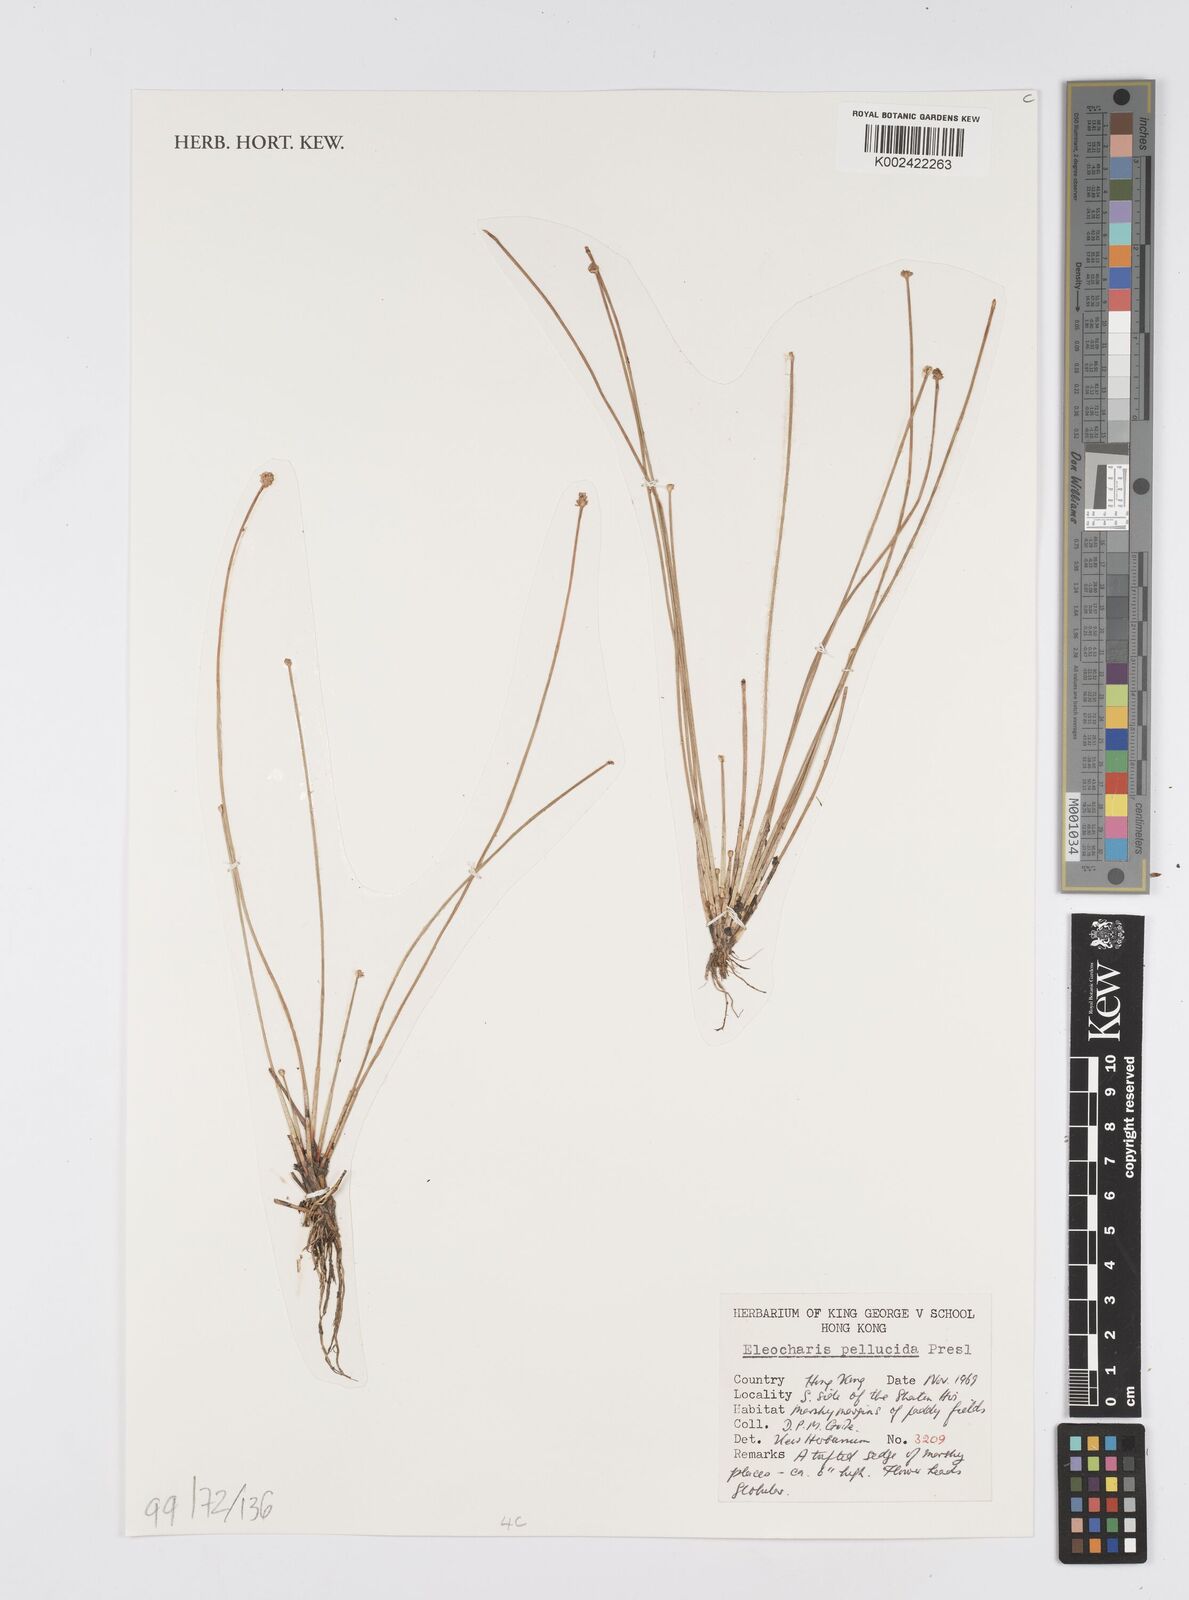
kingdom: Plantae
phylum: Tracheophyta
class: Liliopsida
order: Poales
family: Cyperaceae
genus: Eleocharis
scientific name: Eleocharis pellucida
